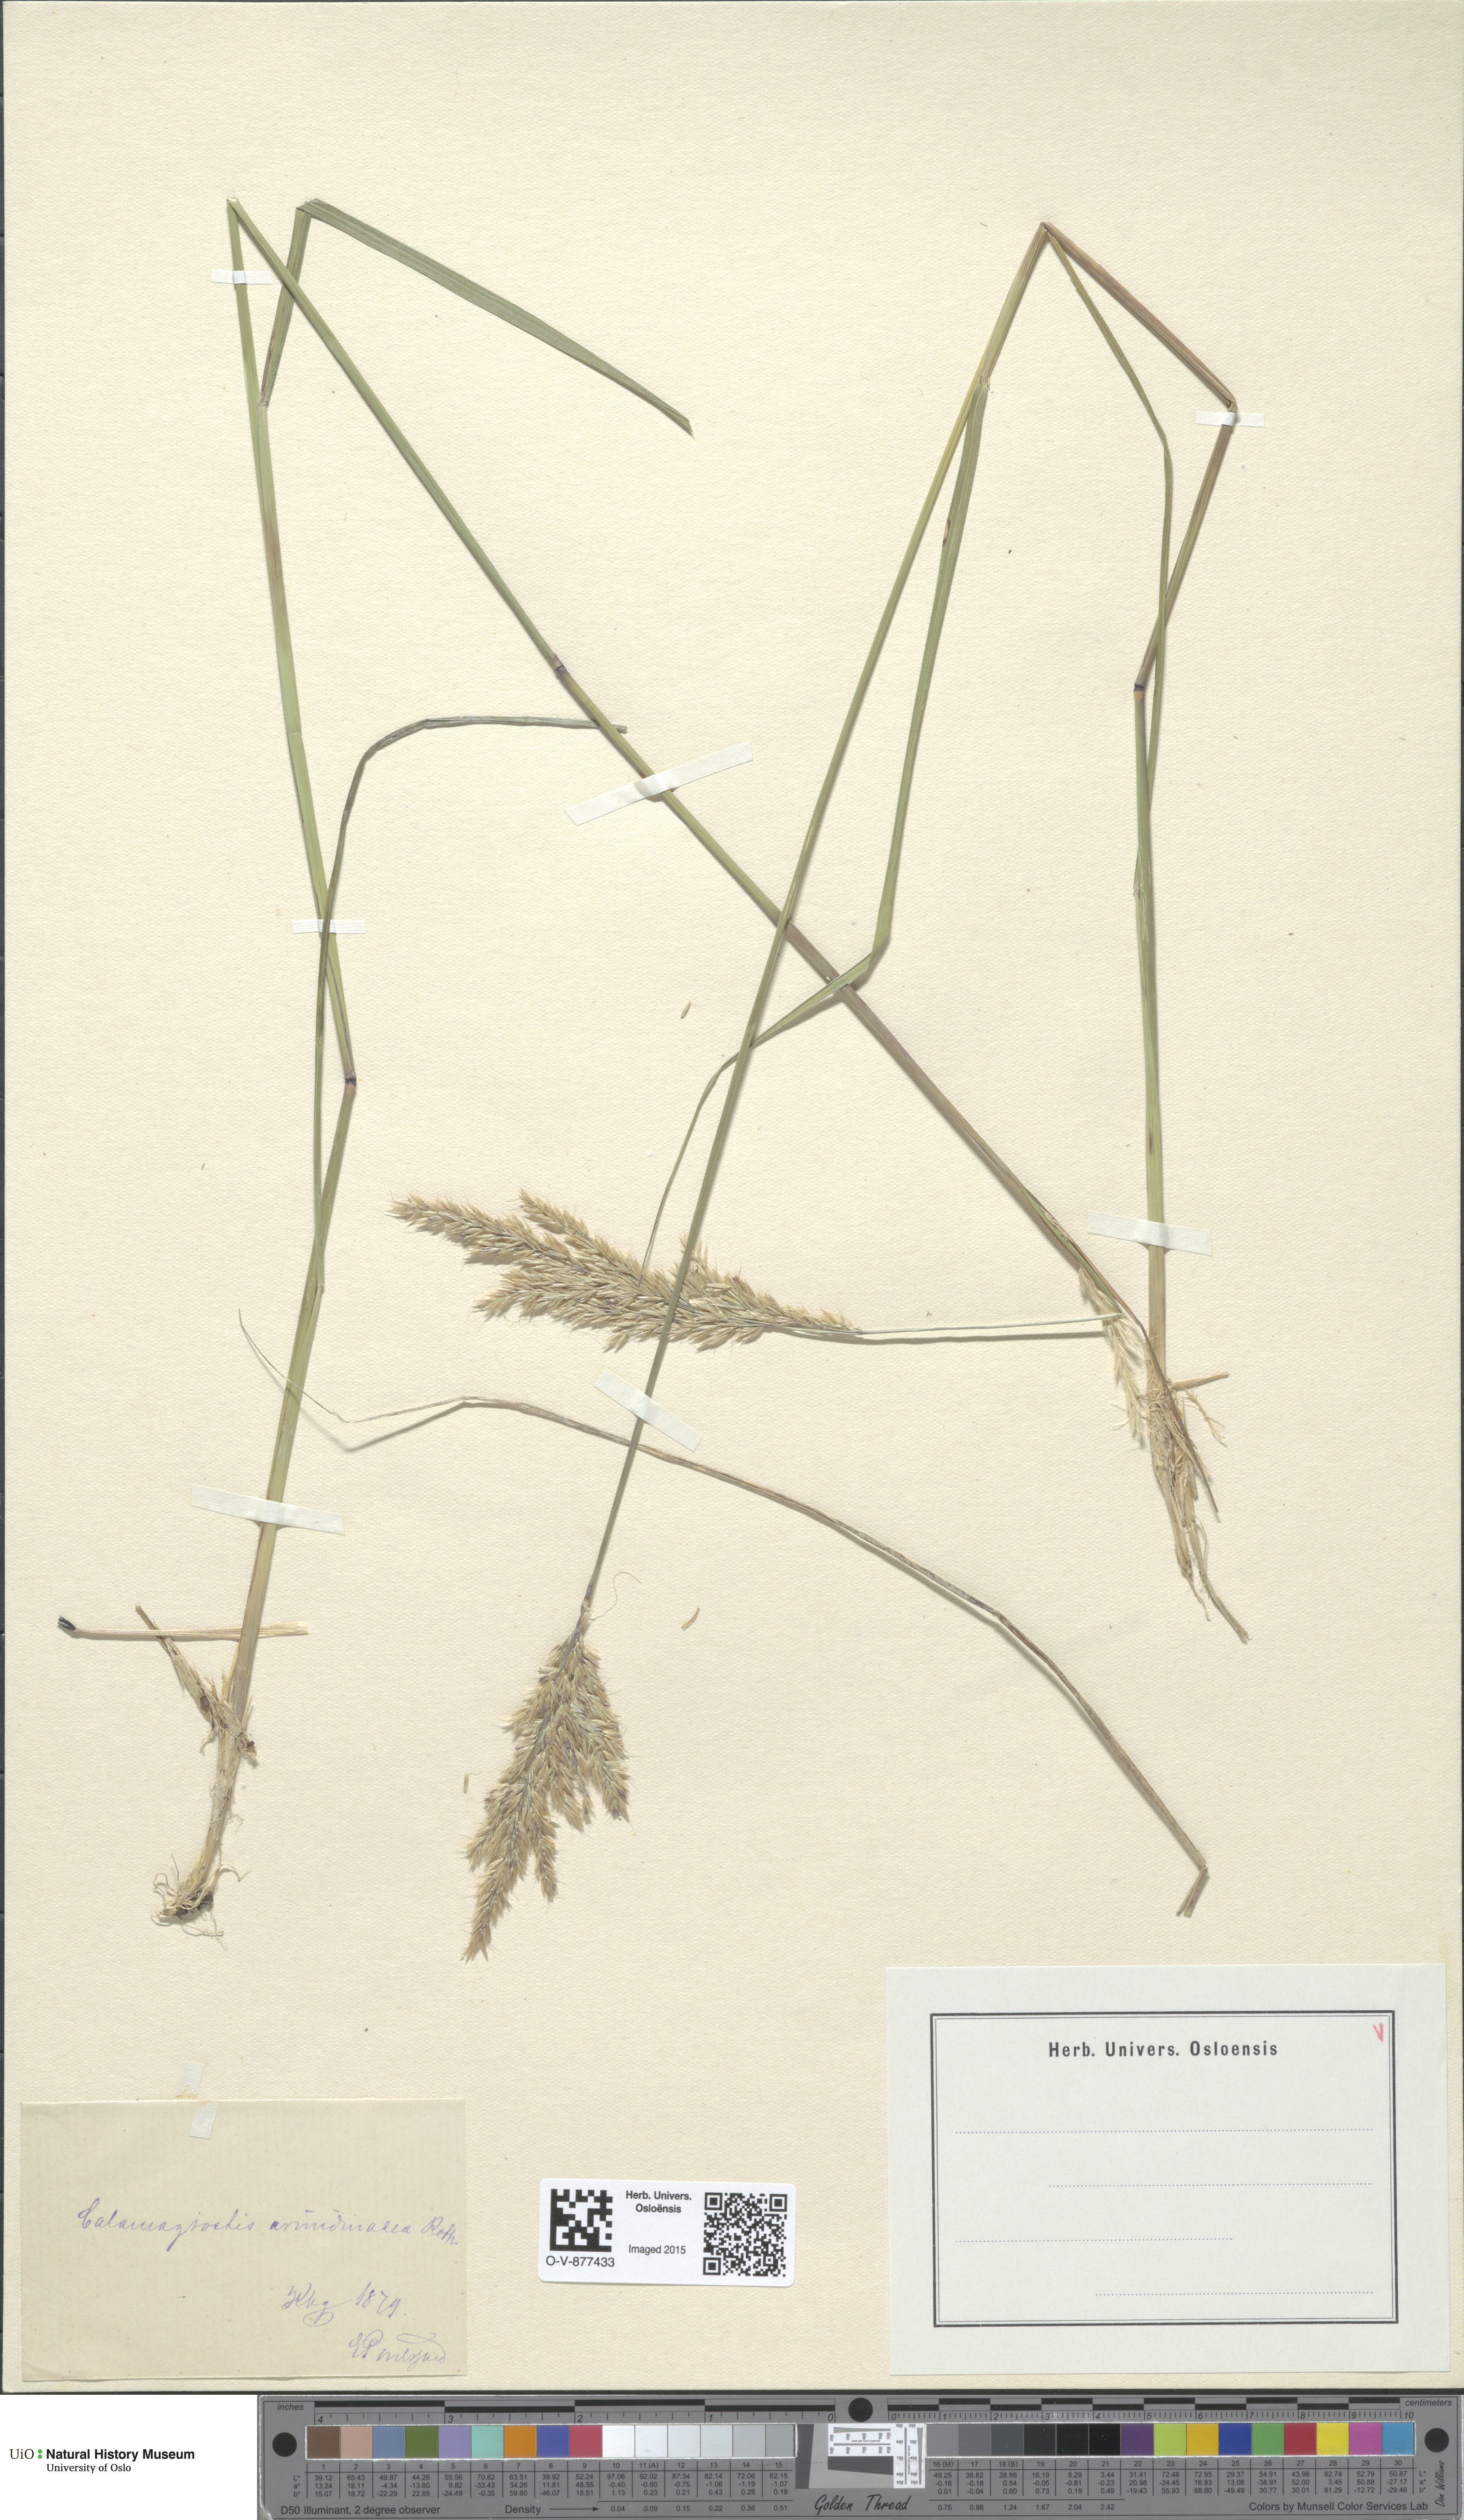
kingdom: Plantae
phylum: Tracheophyta
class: Liliopsida
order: Poales
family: Poaceae
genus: Calamagrostis
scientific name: Calamagrostis arundinacea
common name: Metskastik
